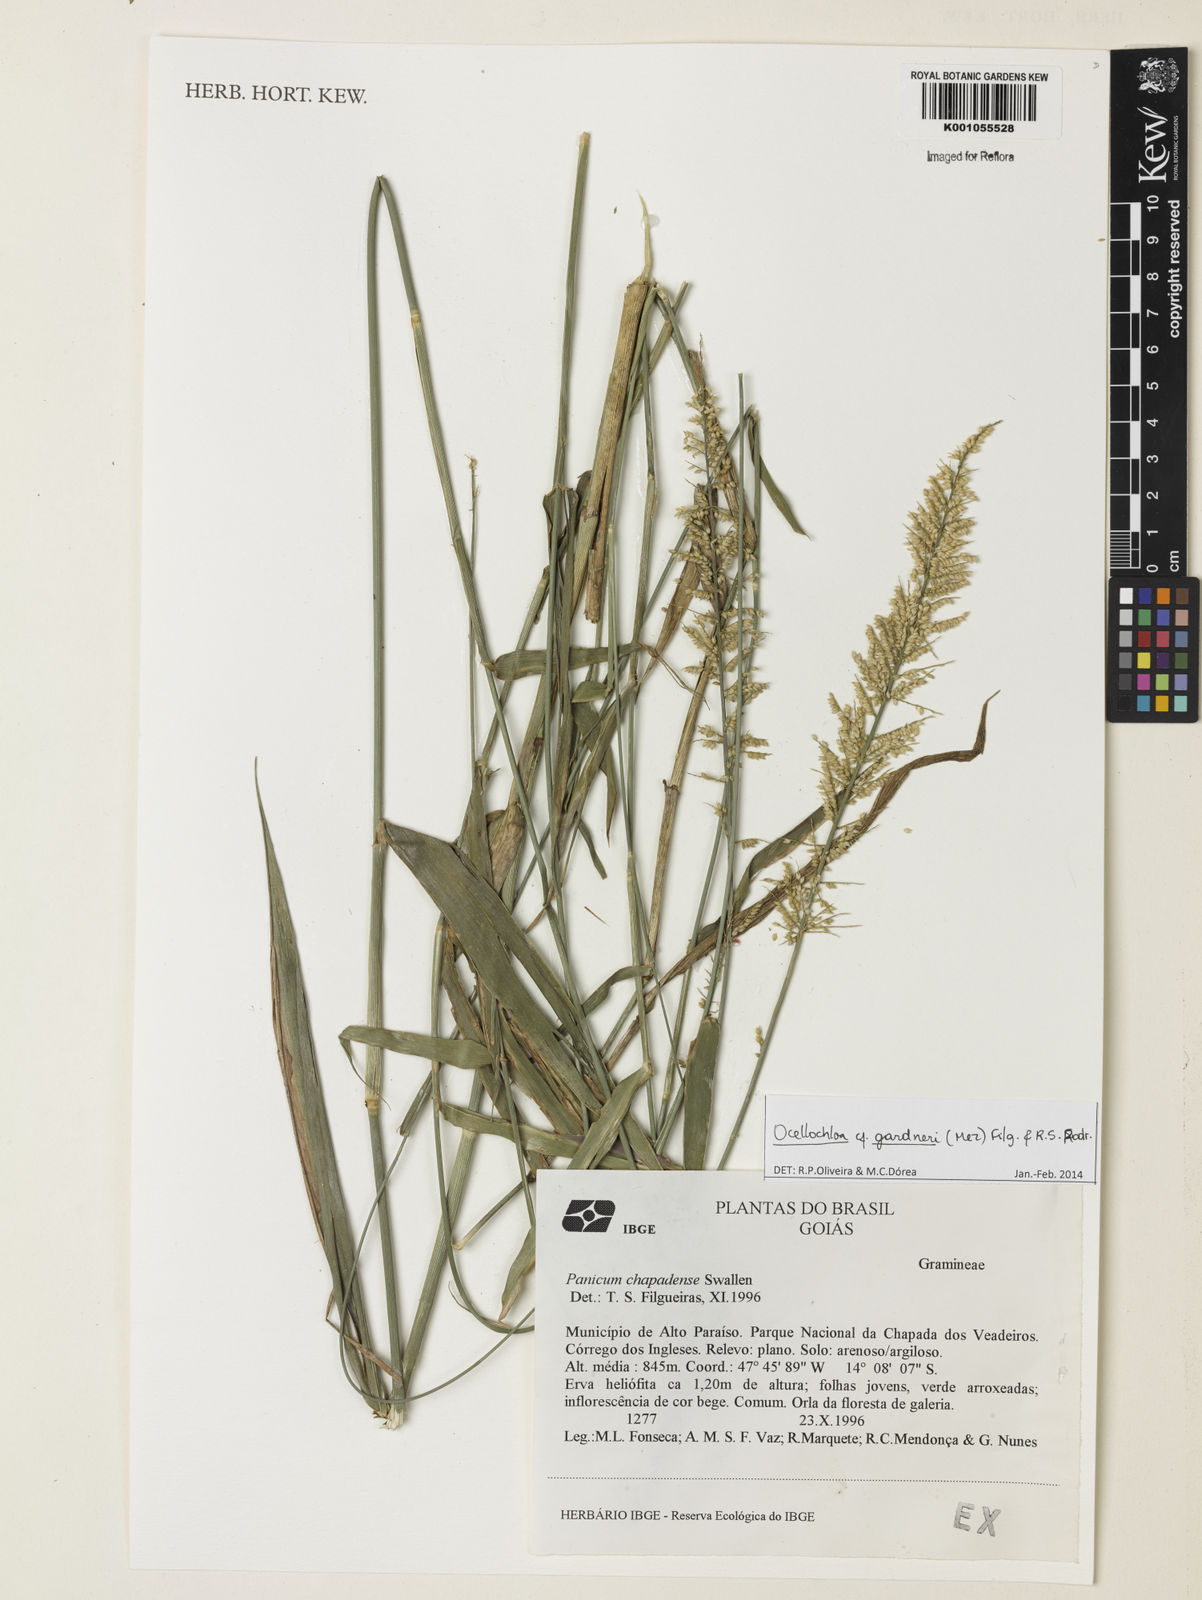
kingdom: Plantae
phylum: Tracheophyta
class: Liliopsida
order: Poales
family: Poaceae
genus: Ocellochloa
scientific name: Ocellochloa gardneri
